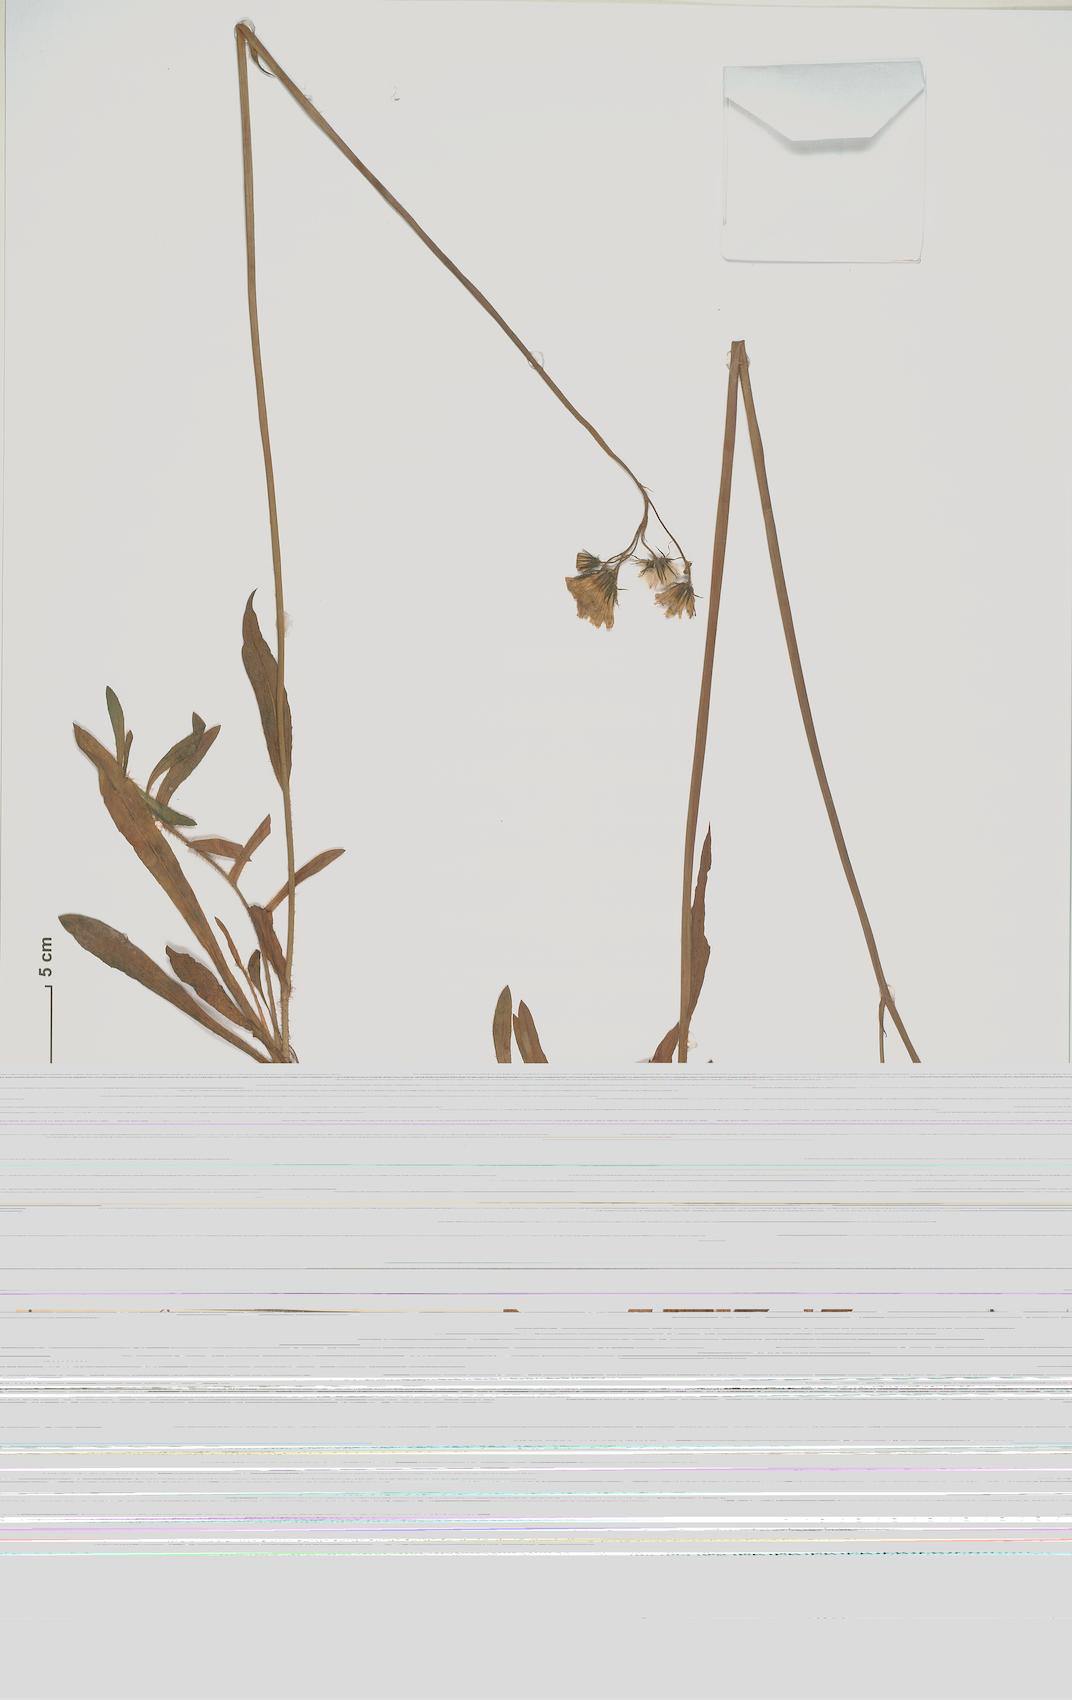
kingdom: Plantae
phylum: Tracheophyta
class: Magnoliopsida
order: Asterales
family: Asteraceae
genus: Pilosella
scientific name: Pilosella bauhini
